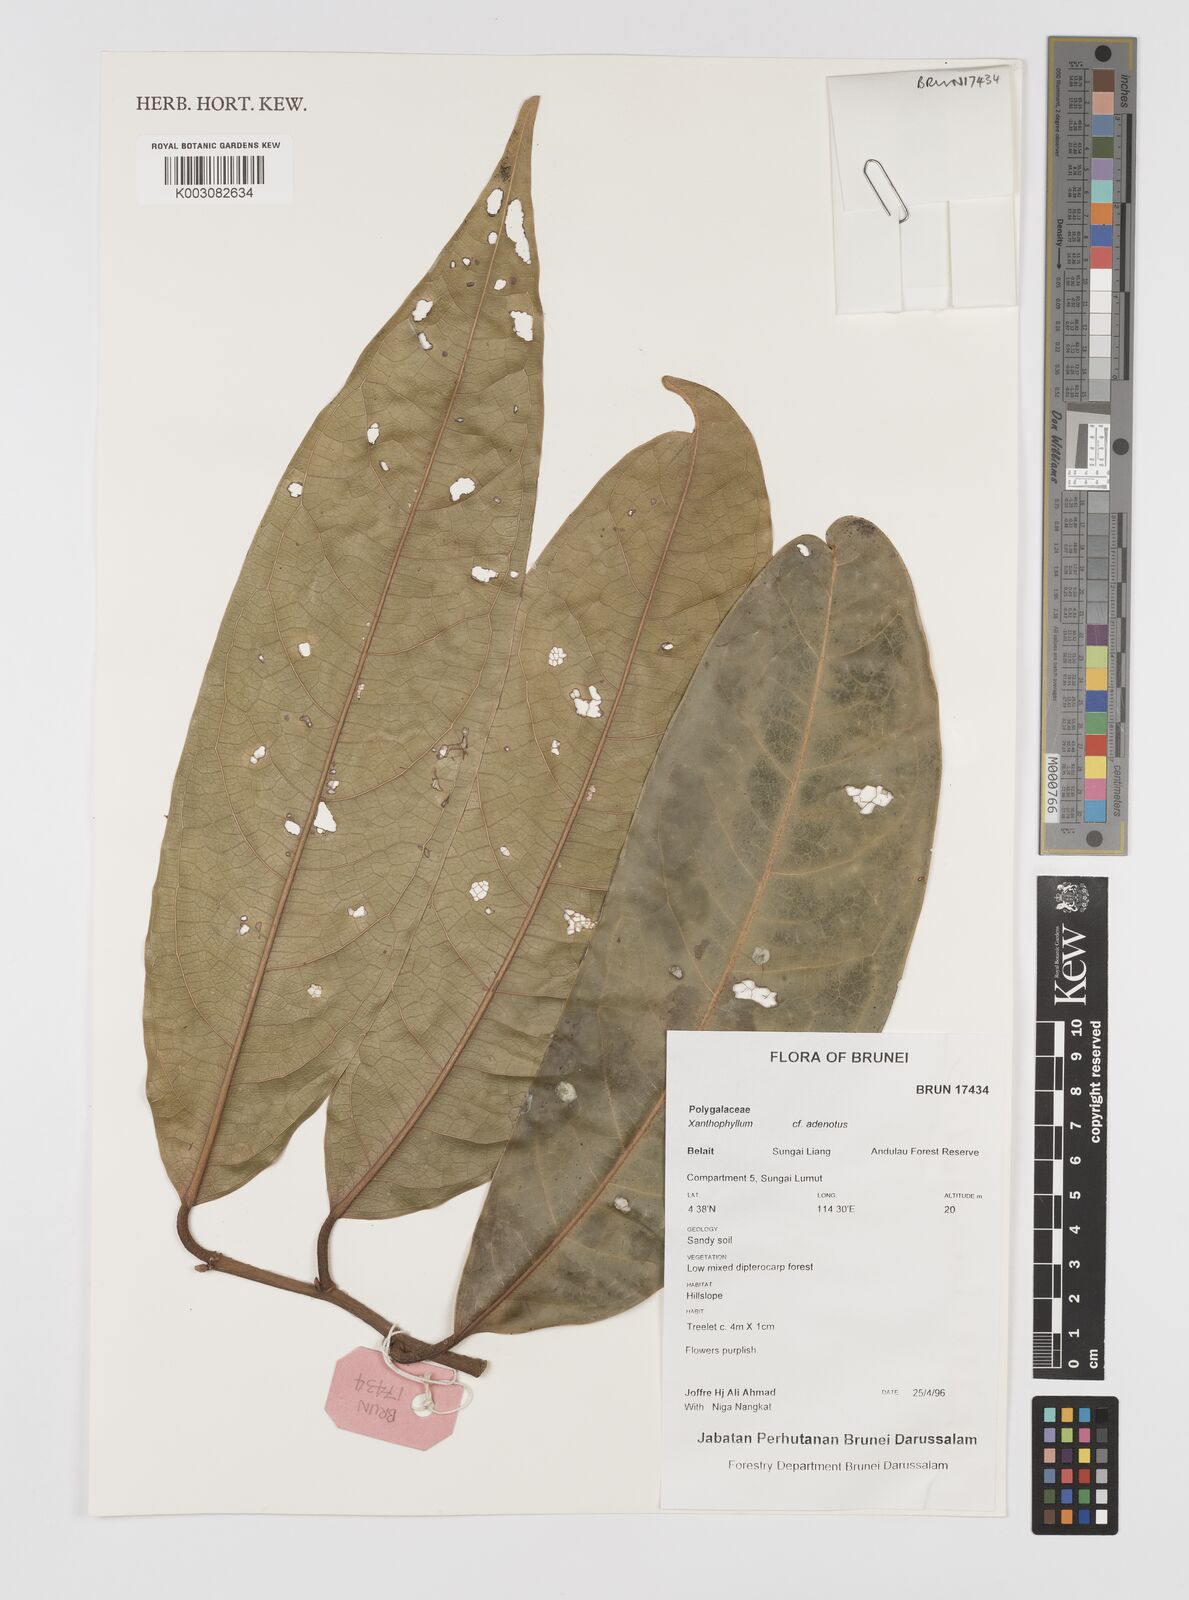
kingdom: Plantae
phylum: Tracheophyta
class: Magnoliopsida
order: Fabales
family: Polygalaceae
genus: Xanthophyllum
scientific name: Xanthophyllum adenotus
